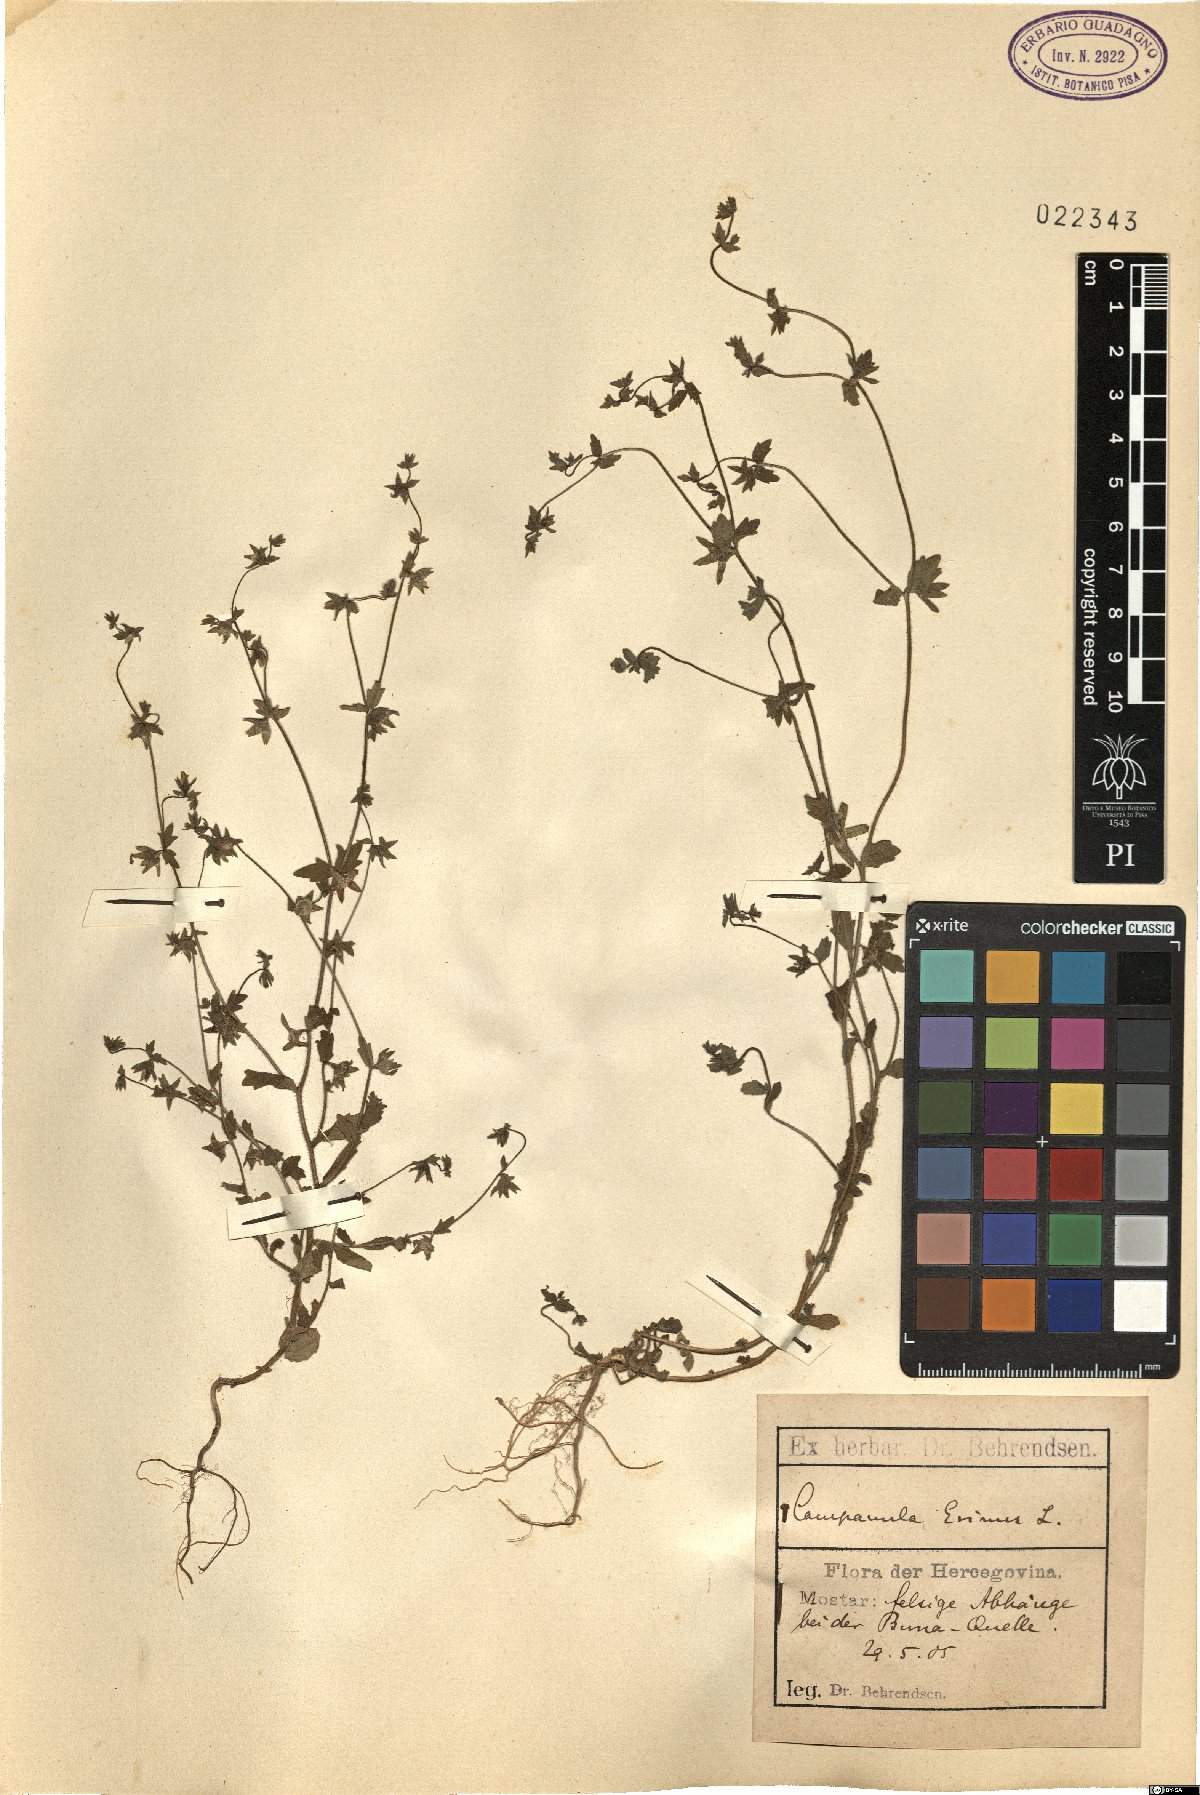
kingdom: Plantae
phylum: Tracheophyta
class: Magnoliopsida
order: Asterales
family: Campanulaceae
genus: Campanula
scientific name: Campanula erinus
